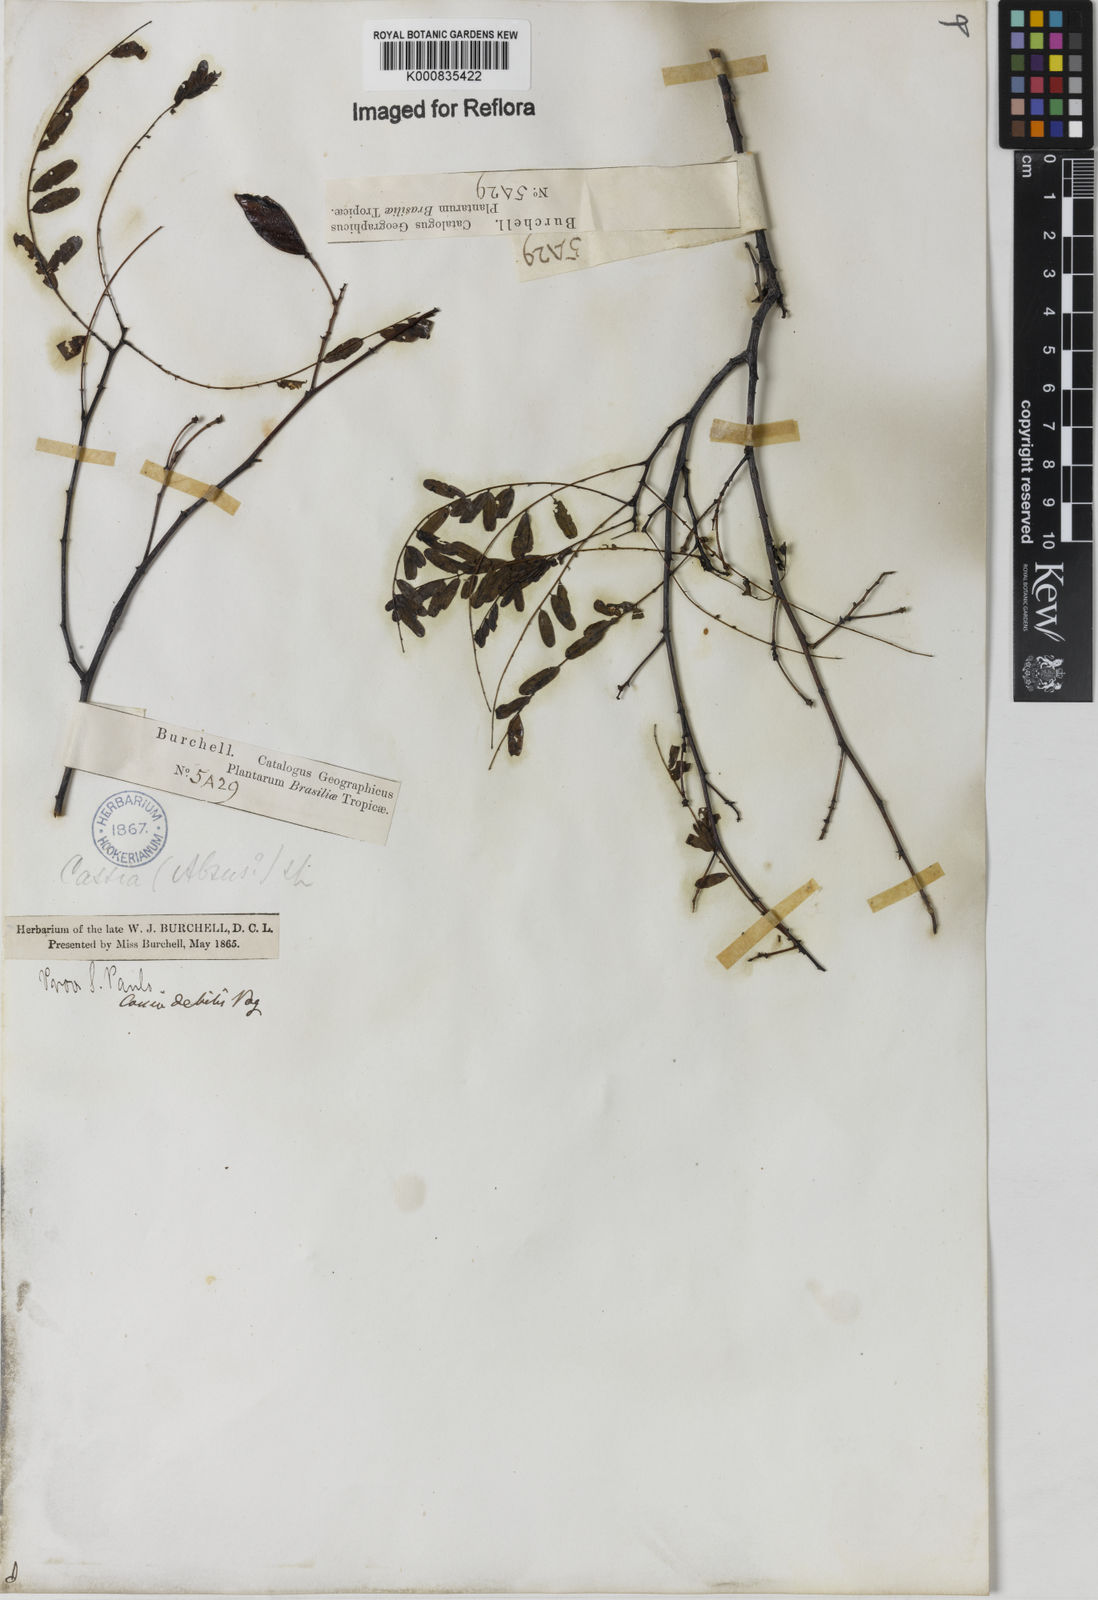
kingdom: Plantae
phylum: Tracheophyta
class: Magnoliopsida
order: Fabales
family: Fabaceae
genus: Chamaecrista
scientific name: Chamaecrista debilis
